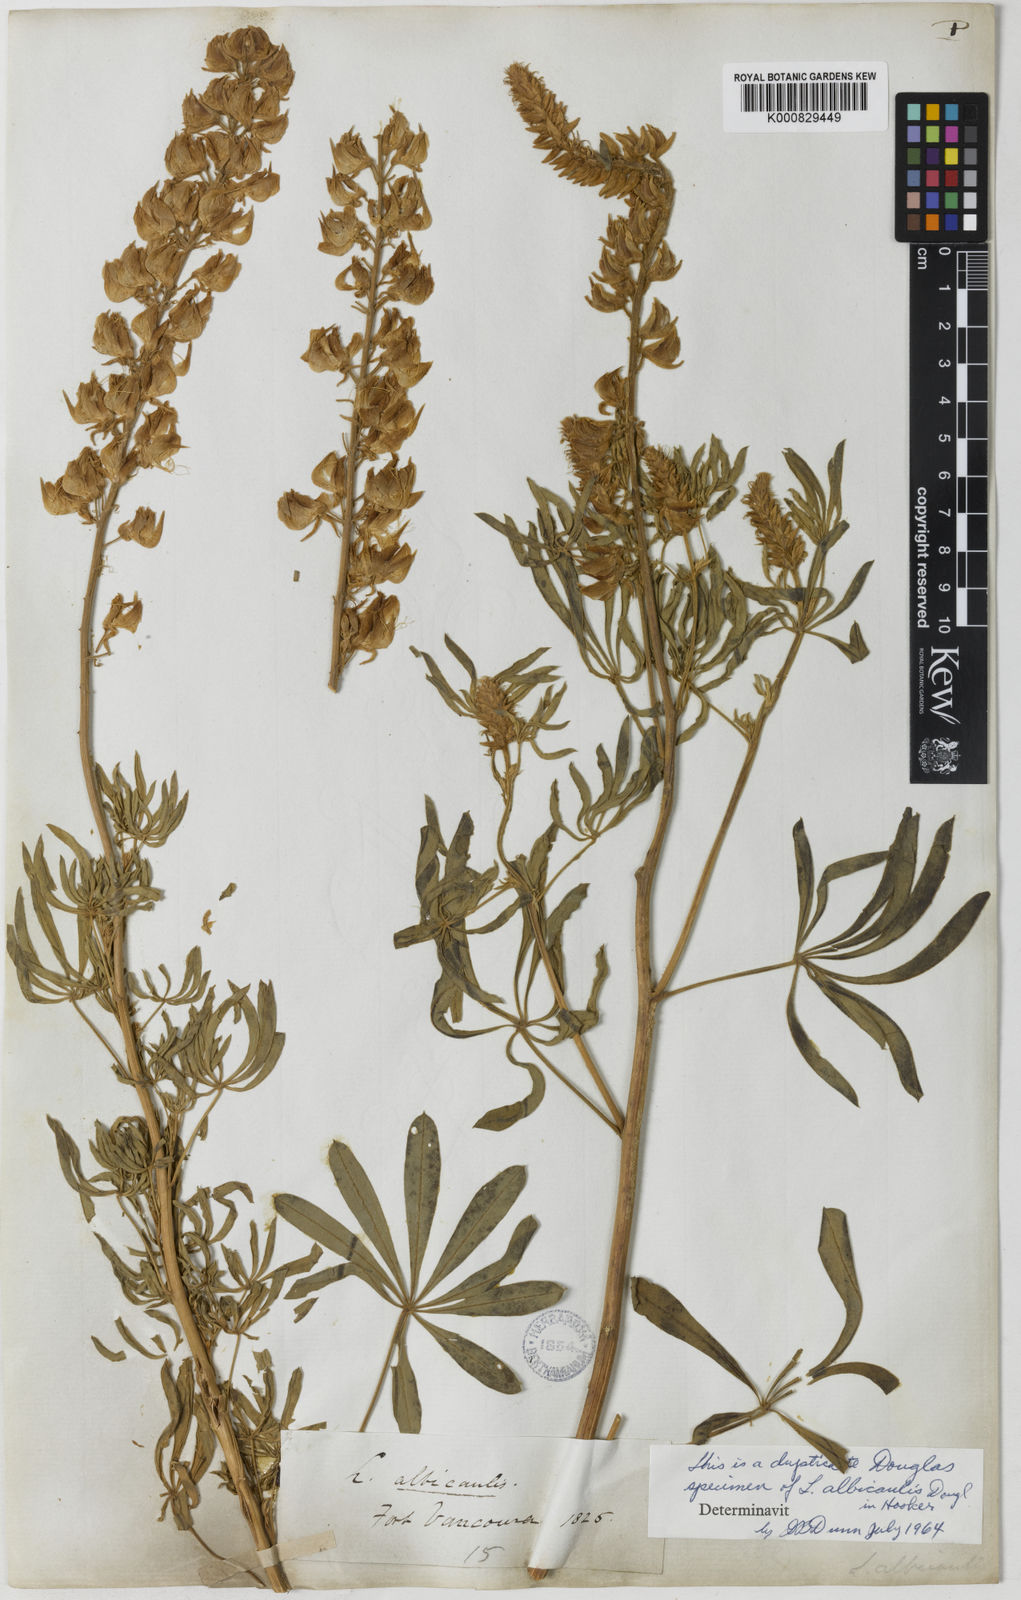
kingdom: Plantae
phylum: Tracheophyta
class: Magnoliopsida
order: Fabales
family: Fabaceae
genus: Lupinus
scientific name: Lupinus
